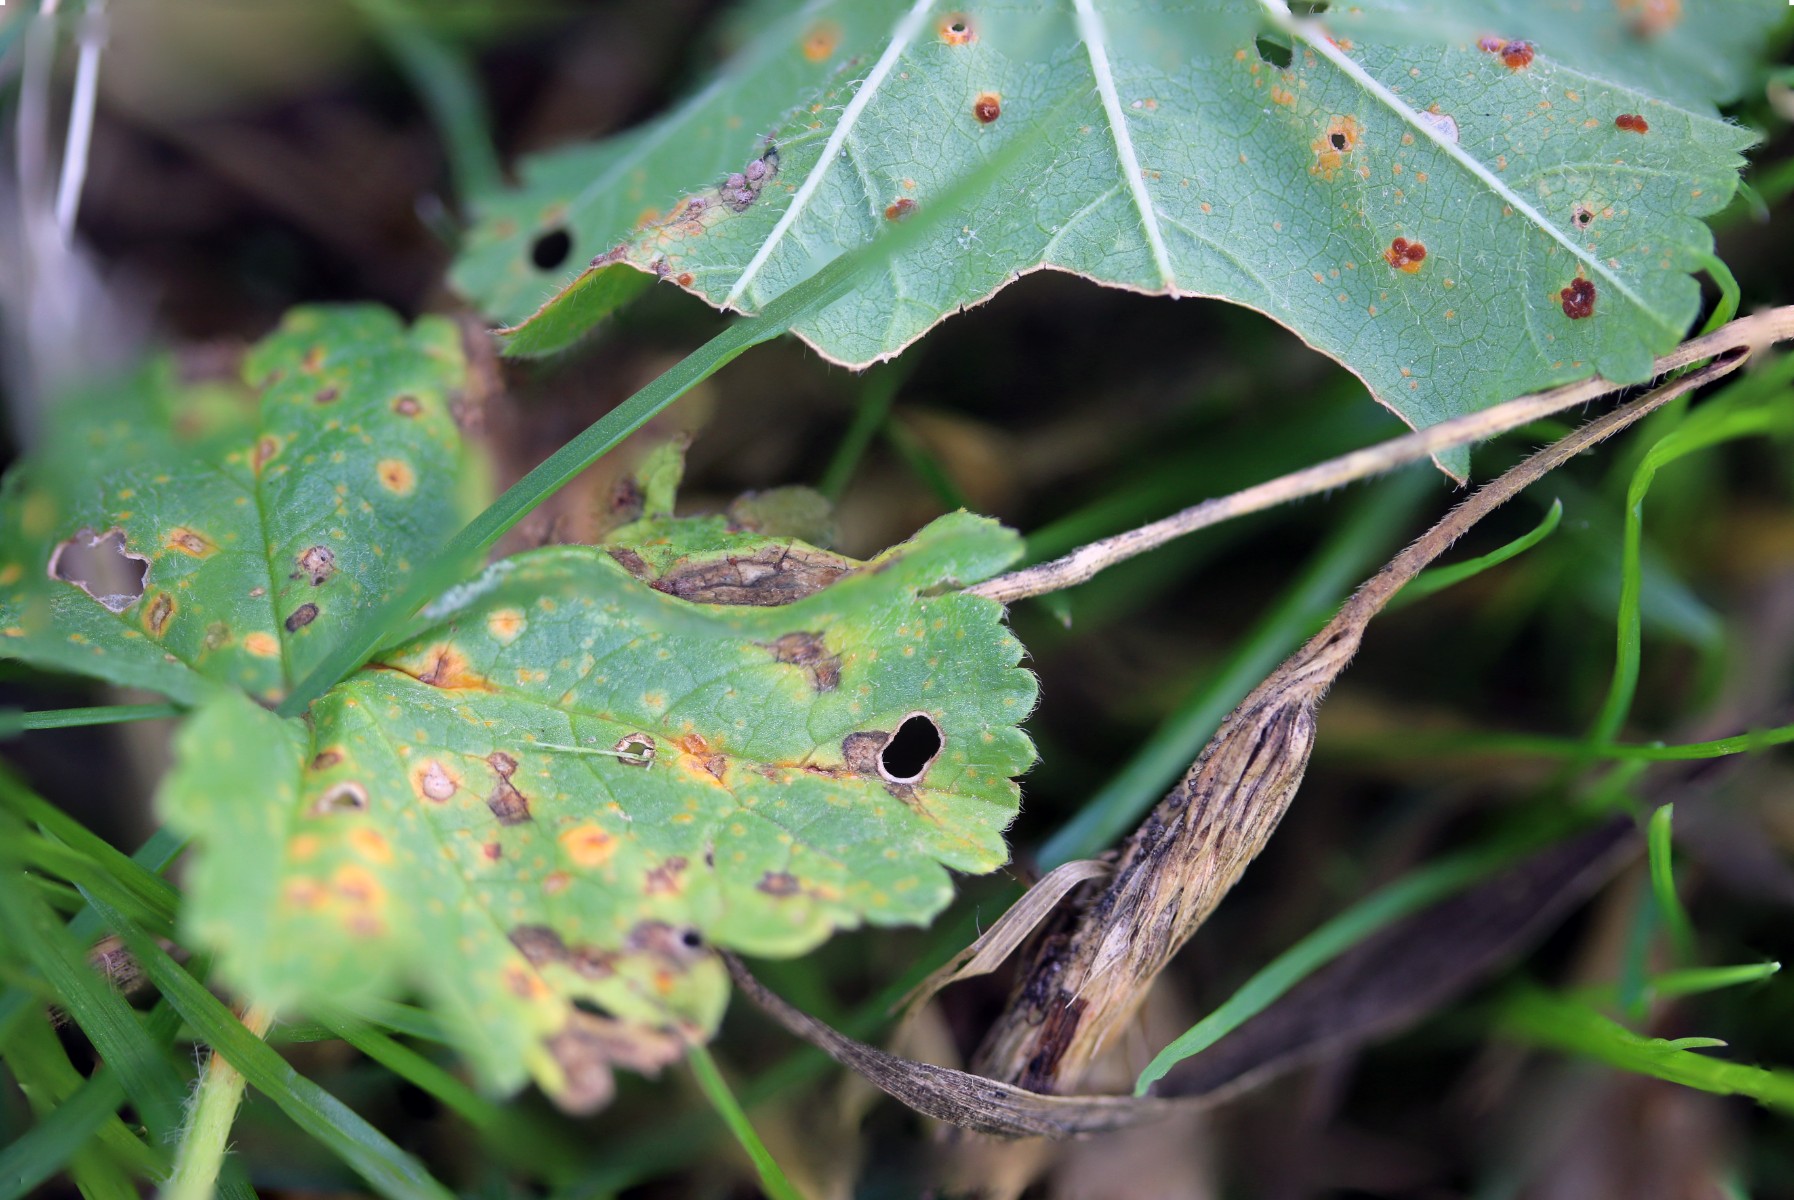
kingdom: Fungi
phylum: Basidiomycota
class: Pucciniomycetes
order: Pucciniales
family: Pucciniaceae
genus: Puccinia
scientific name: Puccinia malvacearum
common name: stokrose-tvecellerust
